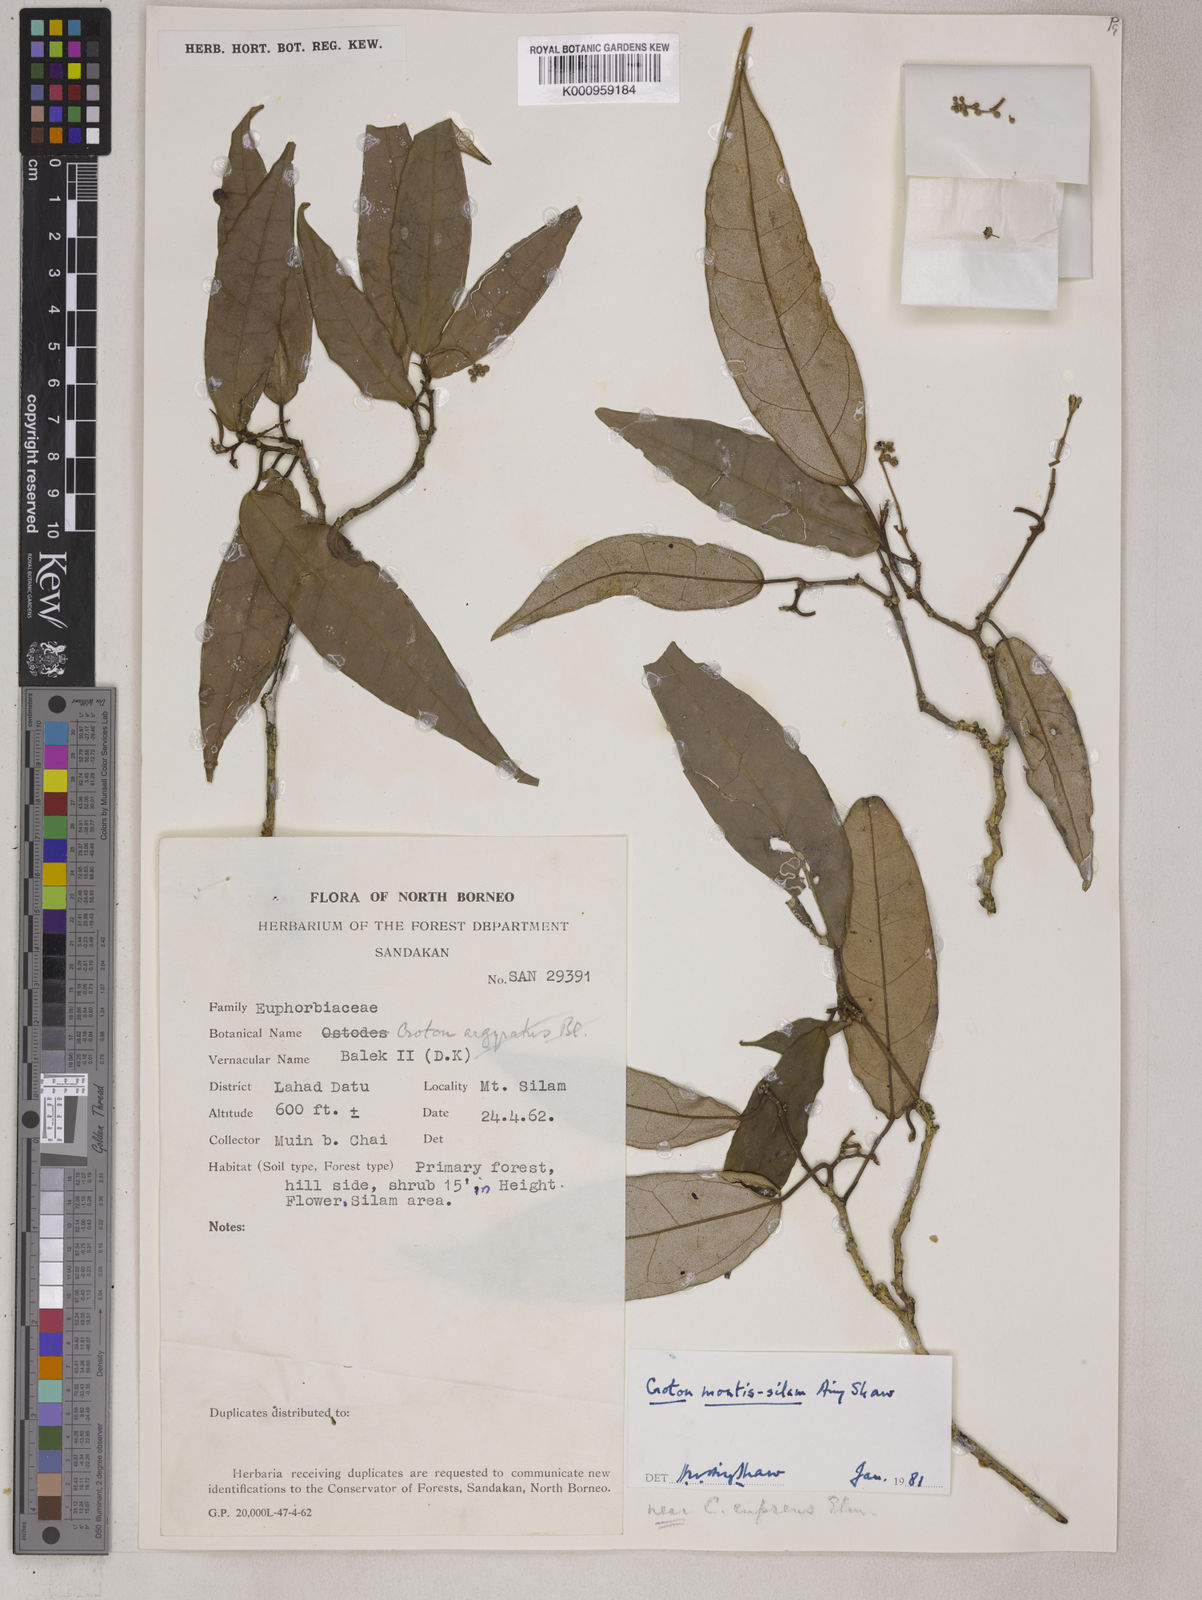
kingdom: Plantae
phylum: Tracheophyta
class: Magnoliopsida
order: Malpighiales
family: Euphorbiaceae
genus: Croton
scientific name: Croton montis-silam
